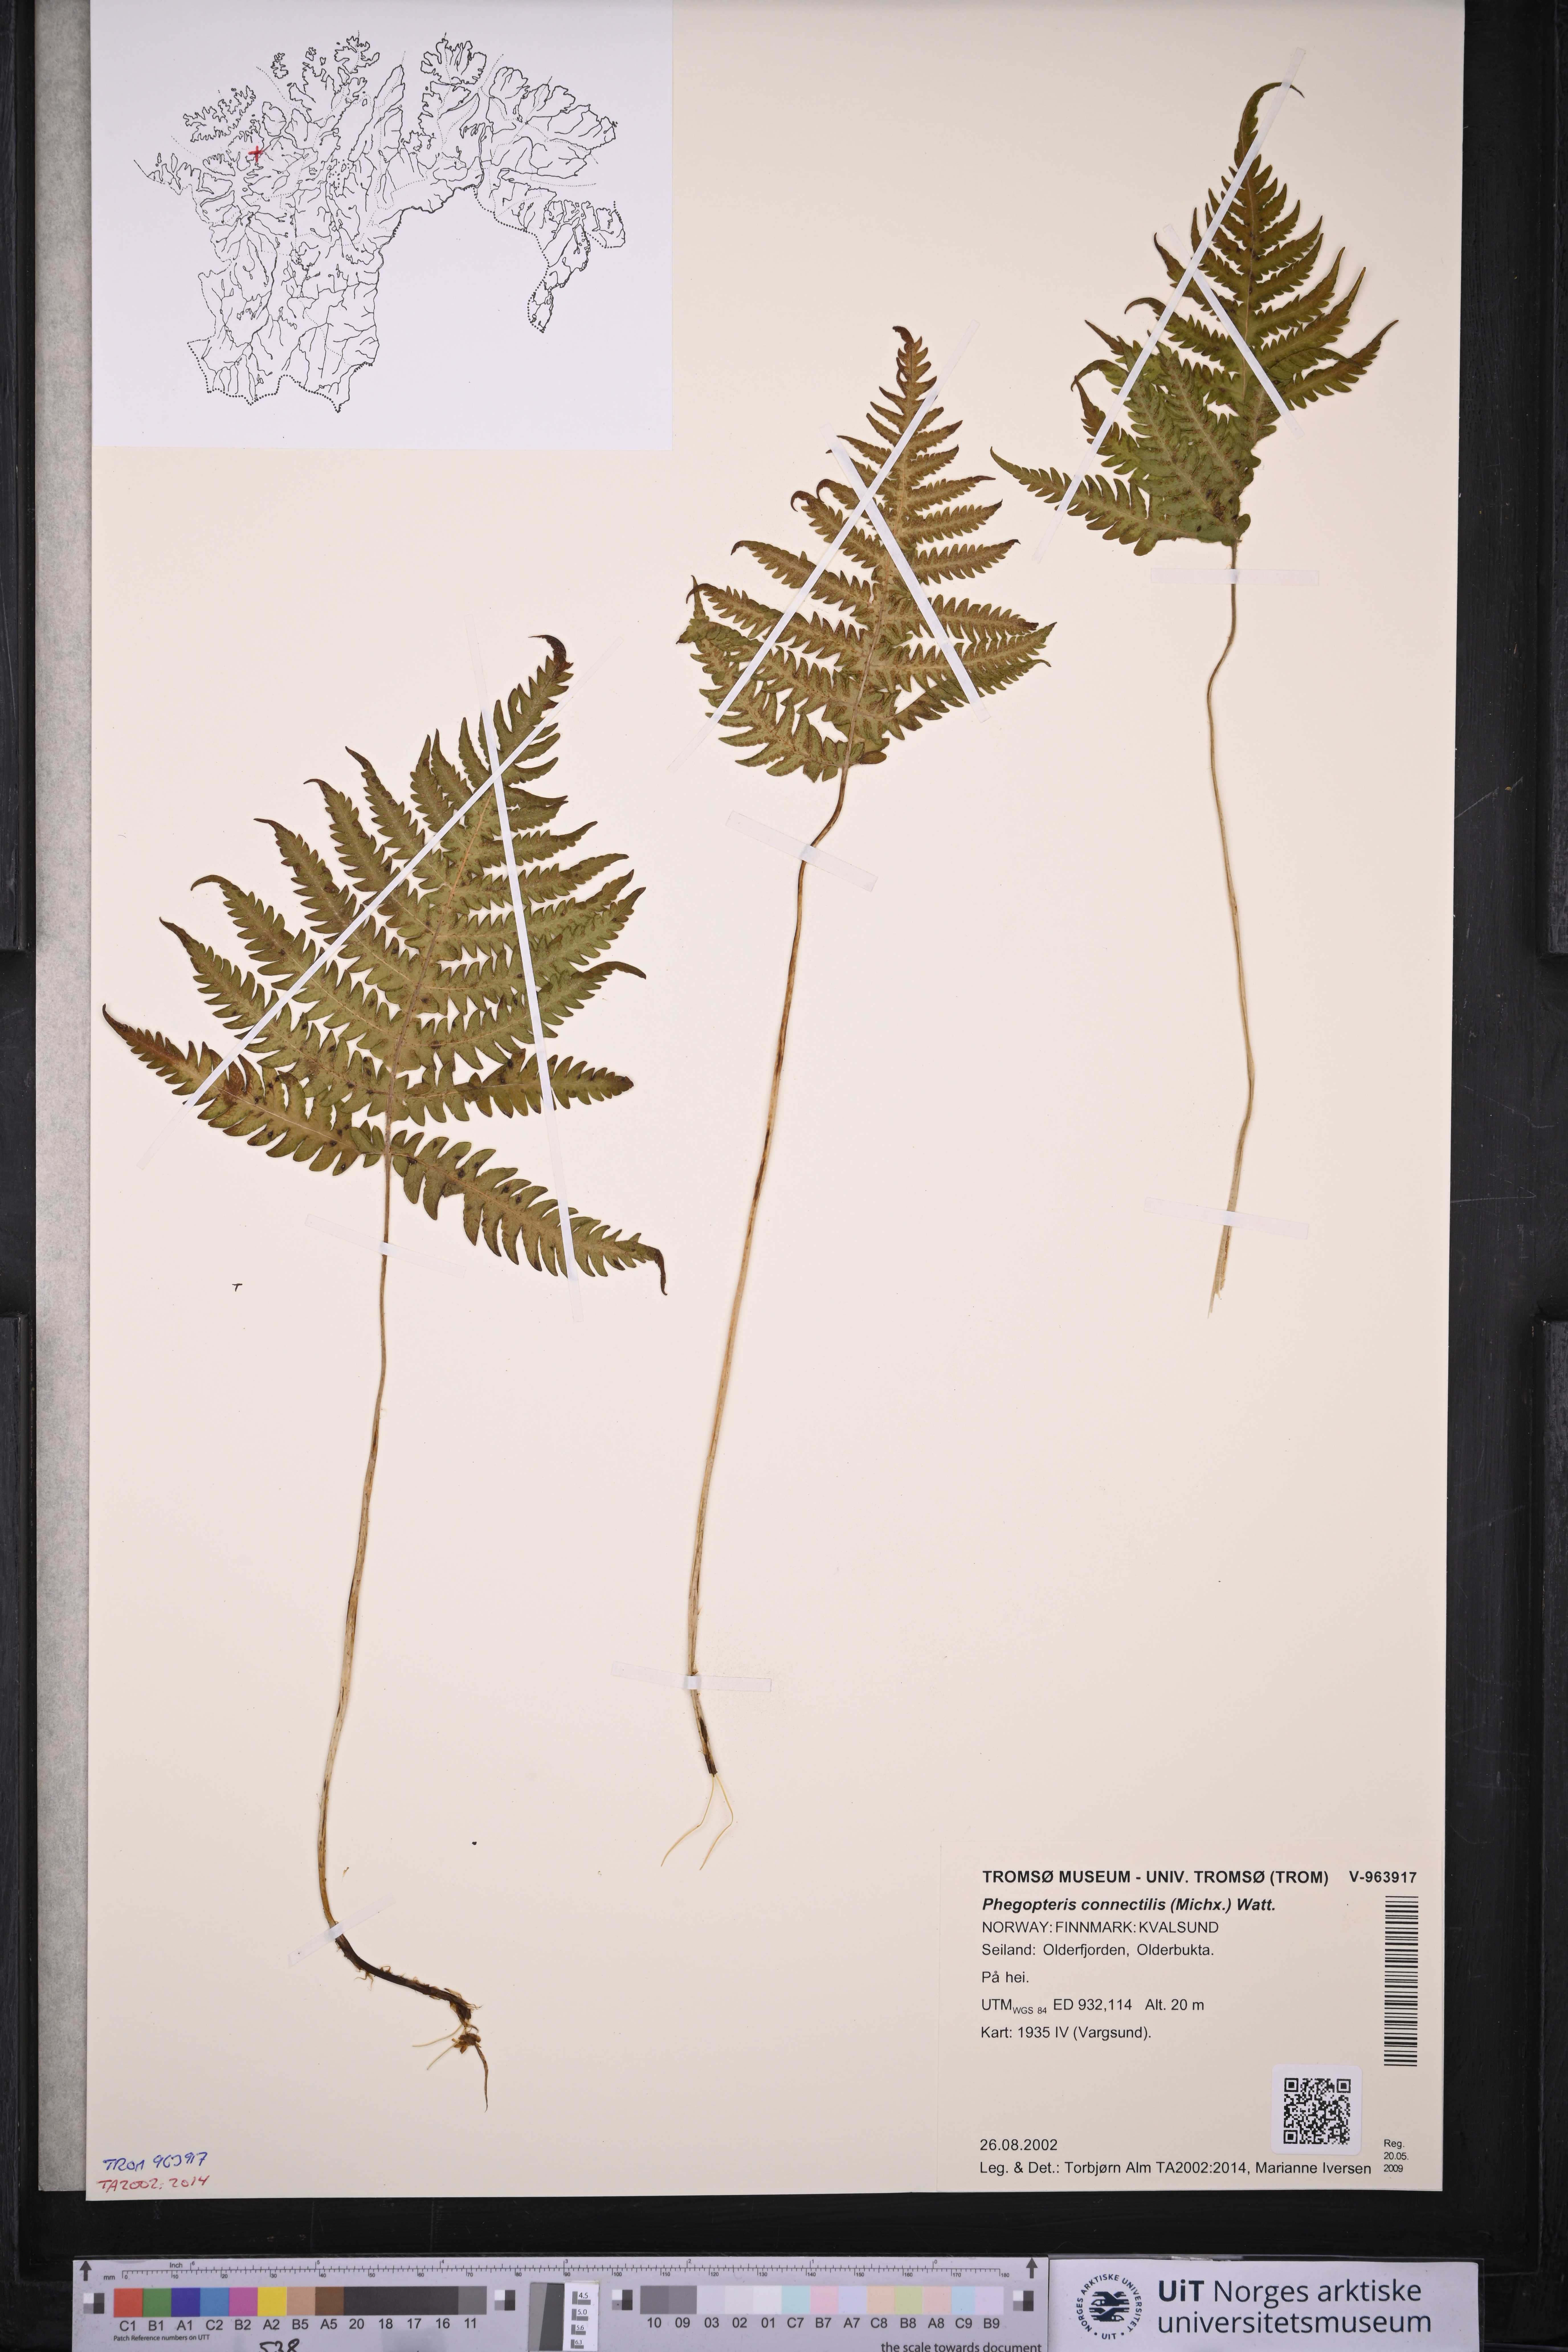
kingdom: Plantae
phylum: Tracheophyta
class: Polypodiopsida
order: Polypodiales
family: Thelypteridaceae
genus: Phegopteris
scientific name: Phegopteris connectilis
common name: Beech fern
